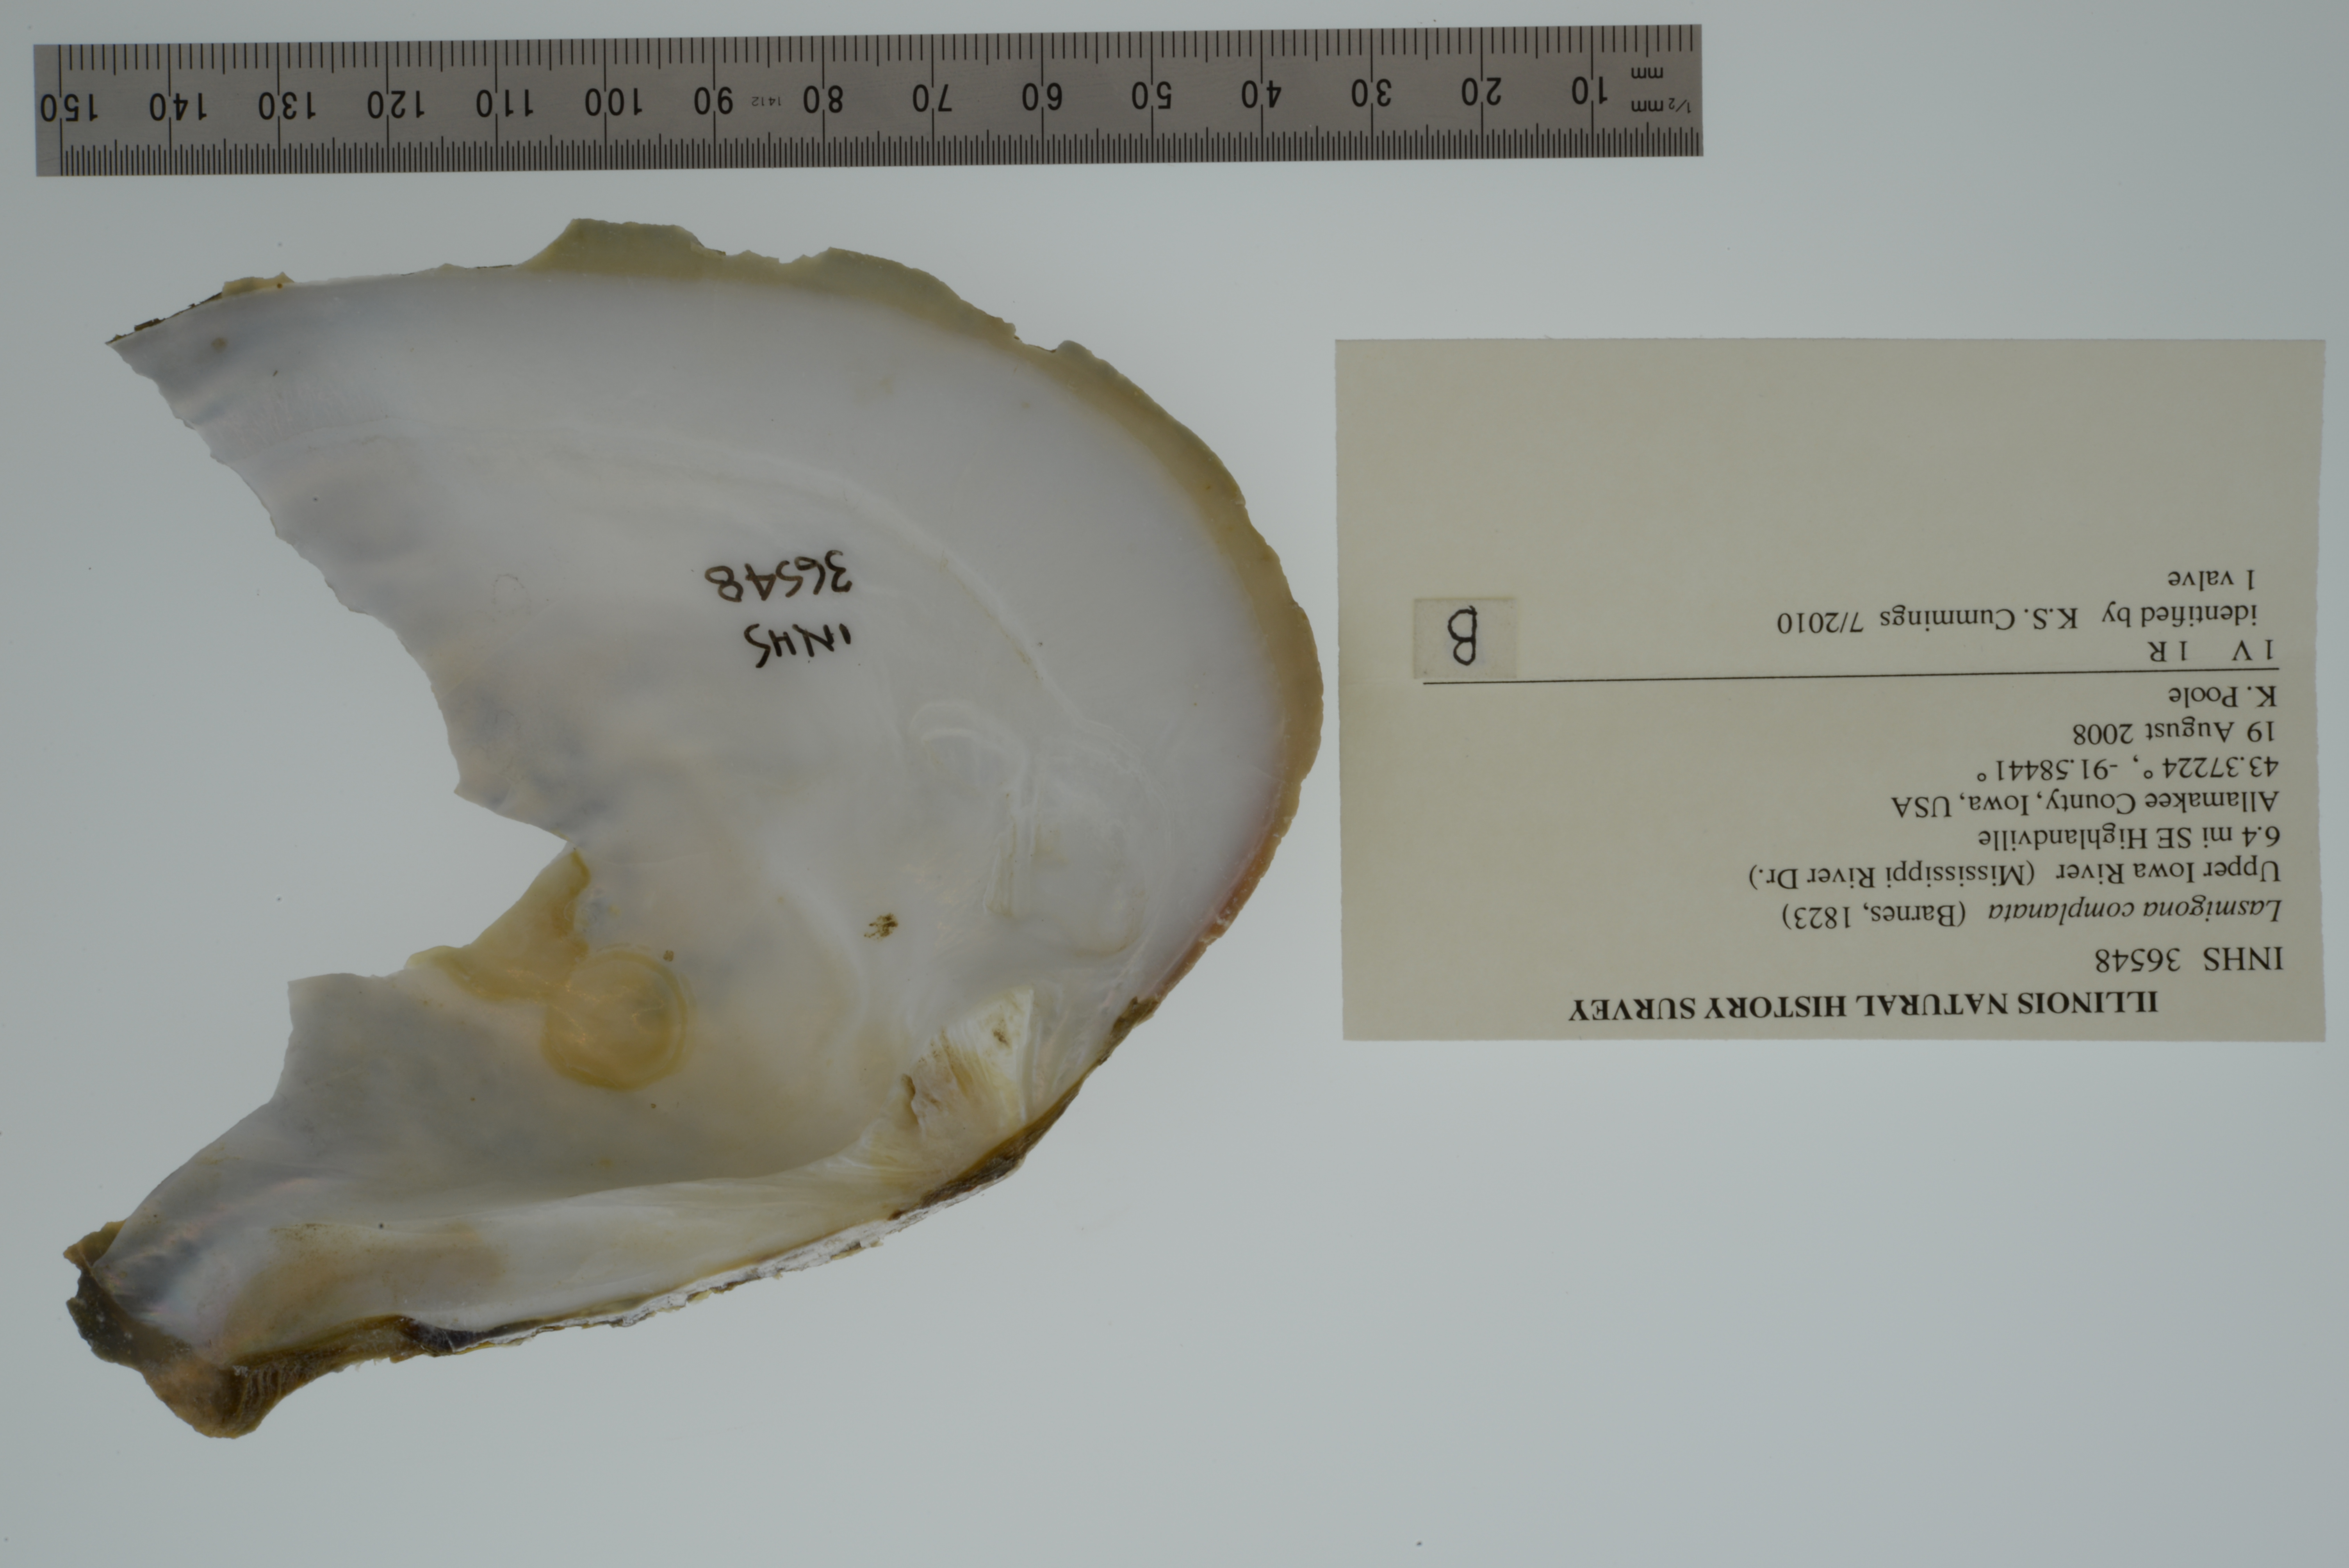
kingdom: Animalia
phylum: Mollusca
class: Bivalvia
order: Unionida
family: Unionidae
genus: Lasmigona
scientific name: Lasmigona complanata
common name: White heelsplitter
